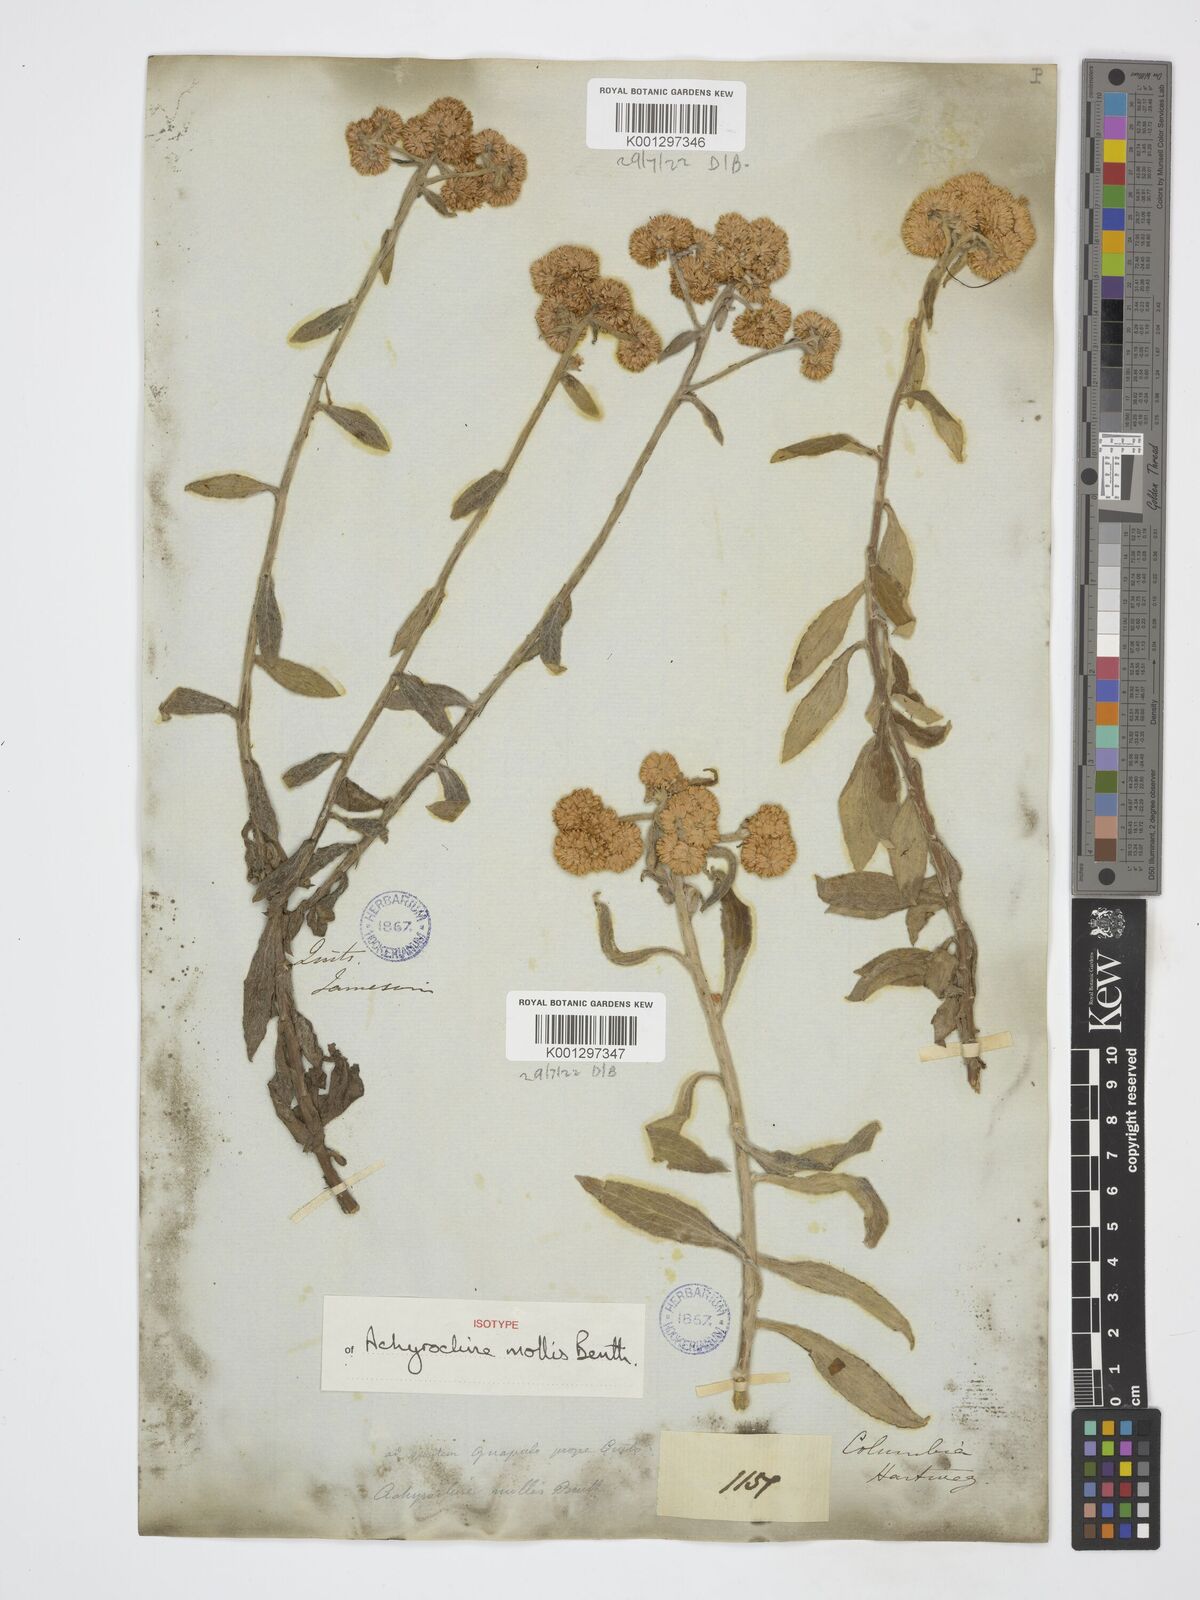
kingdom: Plantae
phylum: Tracheophyta
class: Magnoliopsida
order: Asterales
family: Asteraceae
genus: Achyrocline
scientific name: Achyrocline mollis
